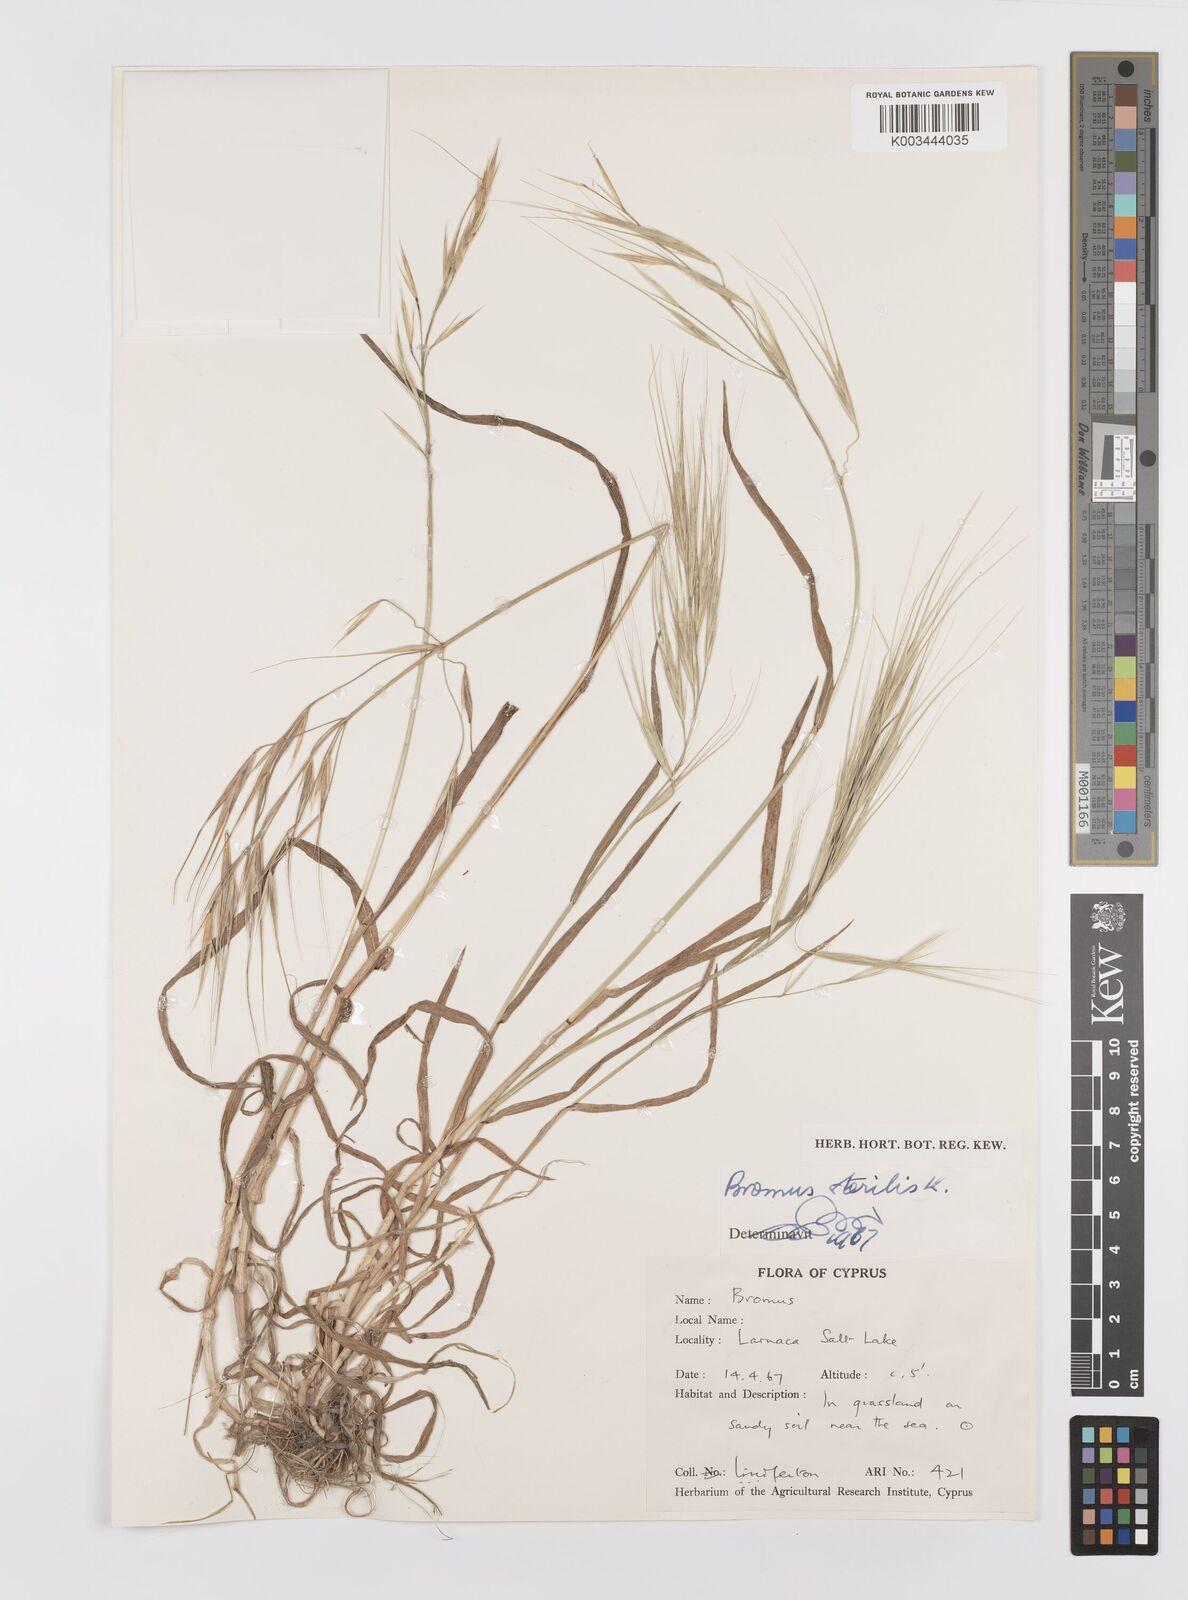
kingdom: Plantae
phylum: Tracheophyta
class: Liliopsida
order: Poales
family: Poaceae
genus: Bromus
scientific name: Bromus sterilis
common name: Poverty brome
